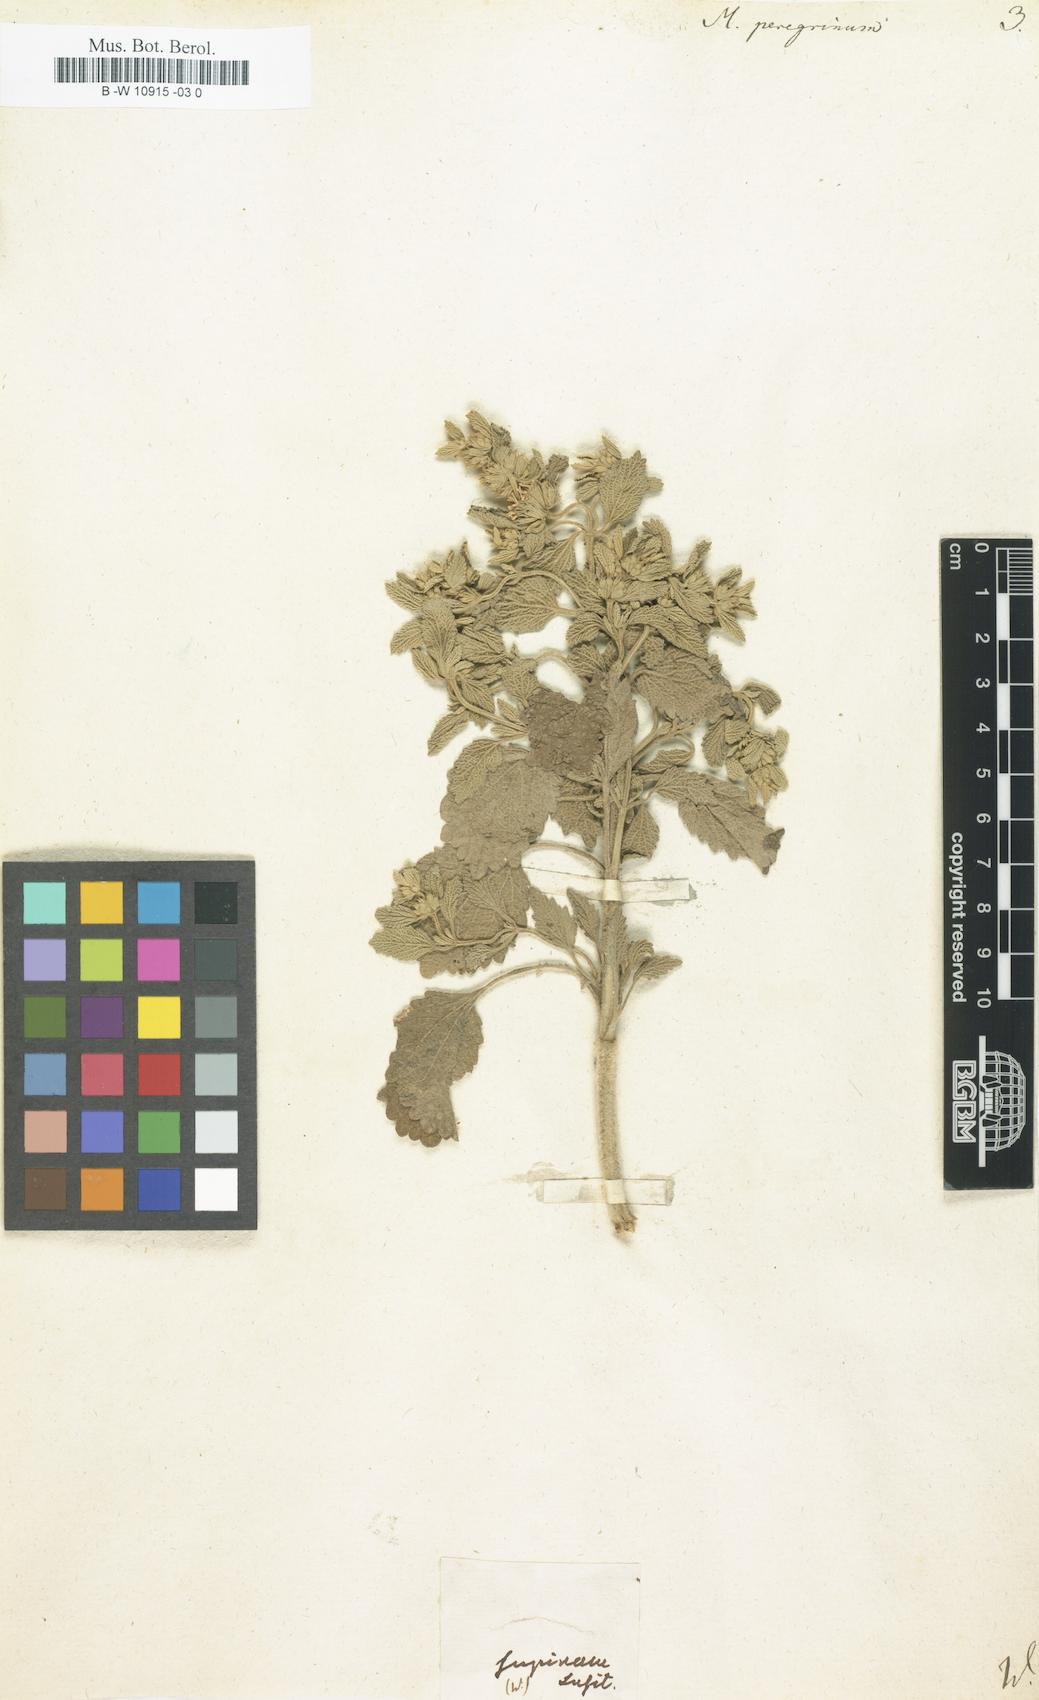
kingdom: Plantae
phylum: Tracheophyta
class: Magnoliopsida
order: Lamiales
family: Lamiaceae
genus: Marrubium
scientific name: Marrubium peregrinum
